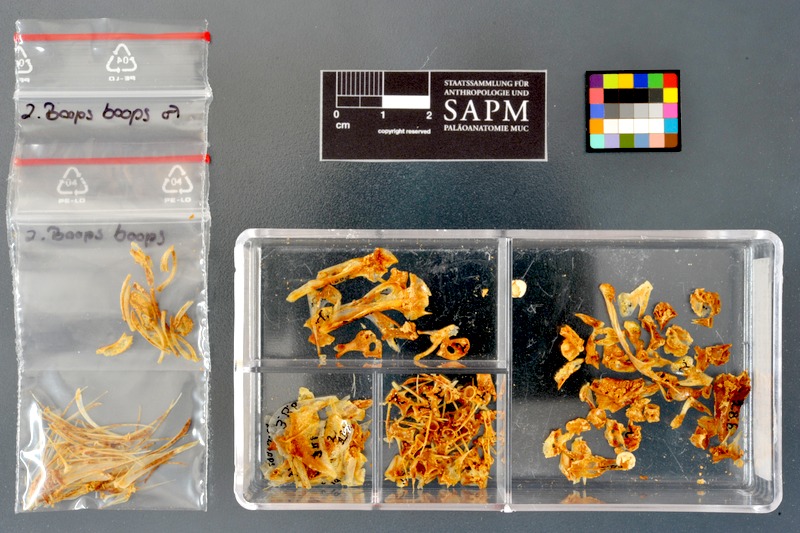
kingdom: Animalia
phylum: Chordata
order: Perciformes
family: Sparidae
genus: Boops
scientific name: Boops boops
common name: Bogue
